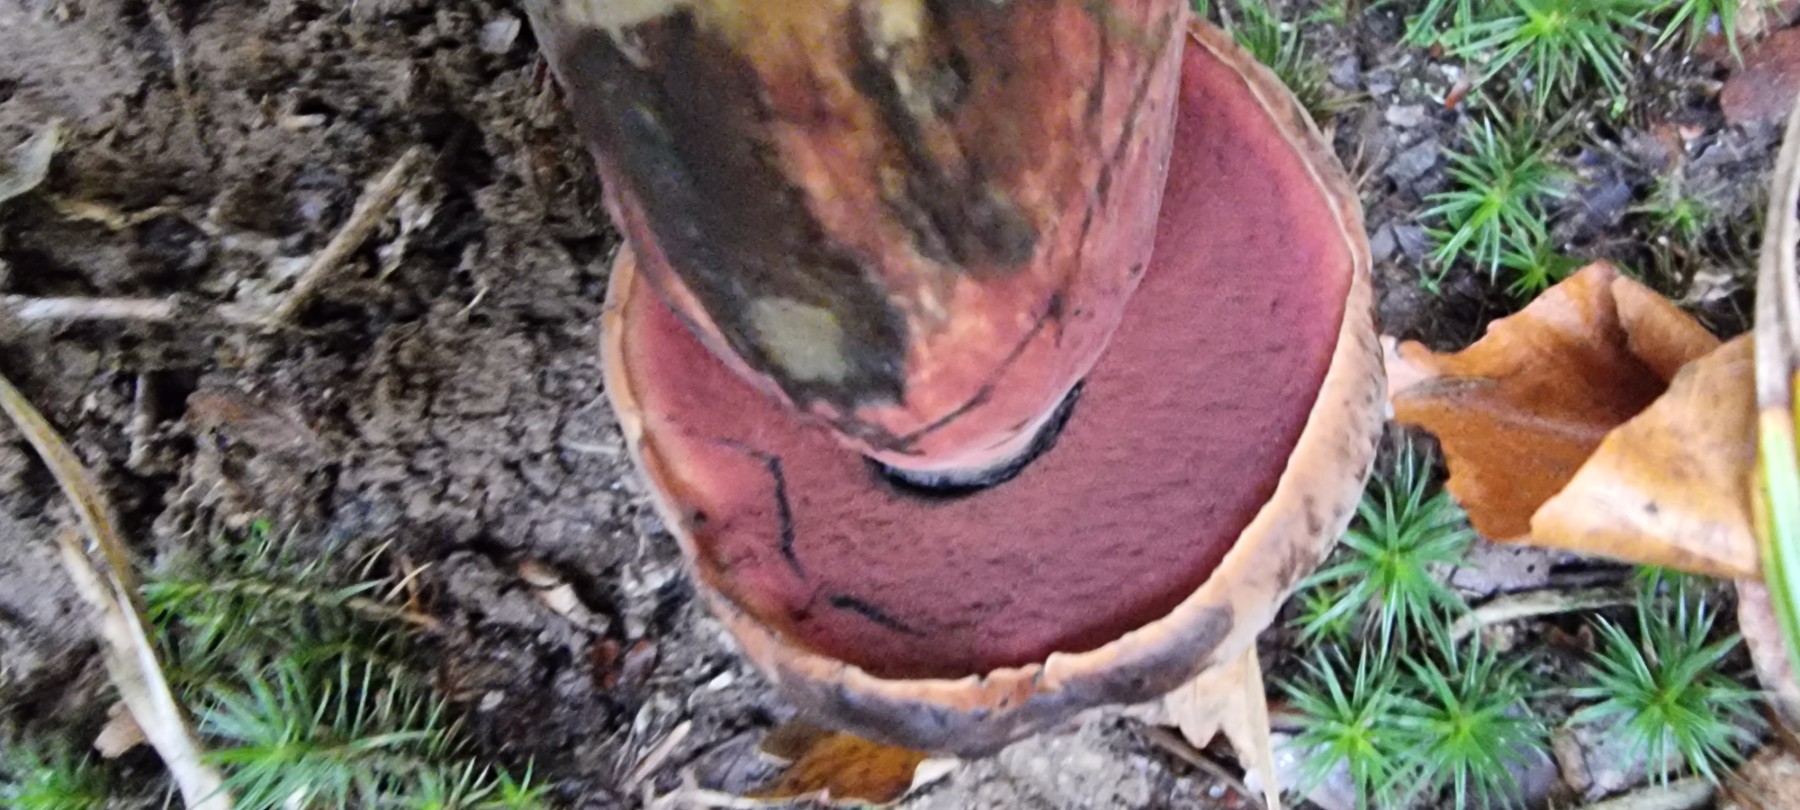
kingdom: Fungi
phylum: Basidiomycota
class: Agaricomycetes
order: Boletales
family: Boletaceae
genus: Neoboletus
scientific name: Neoboletus erythropus
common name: punktstokket indigorørhat
